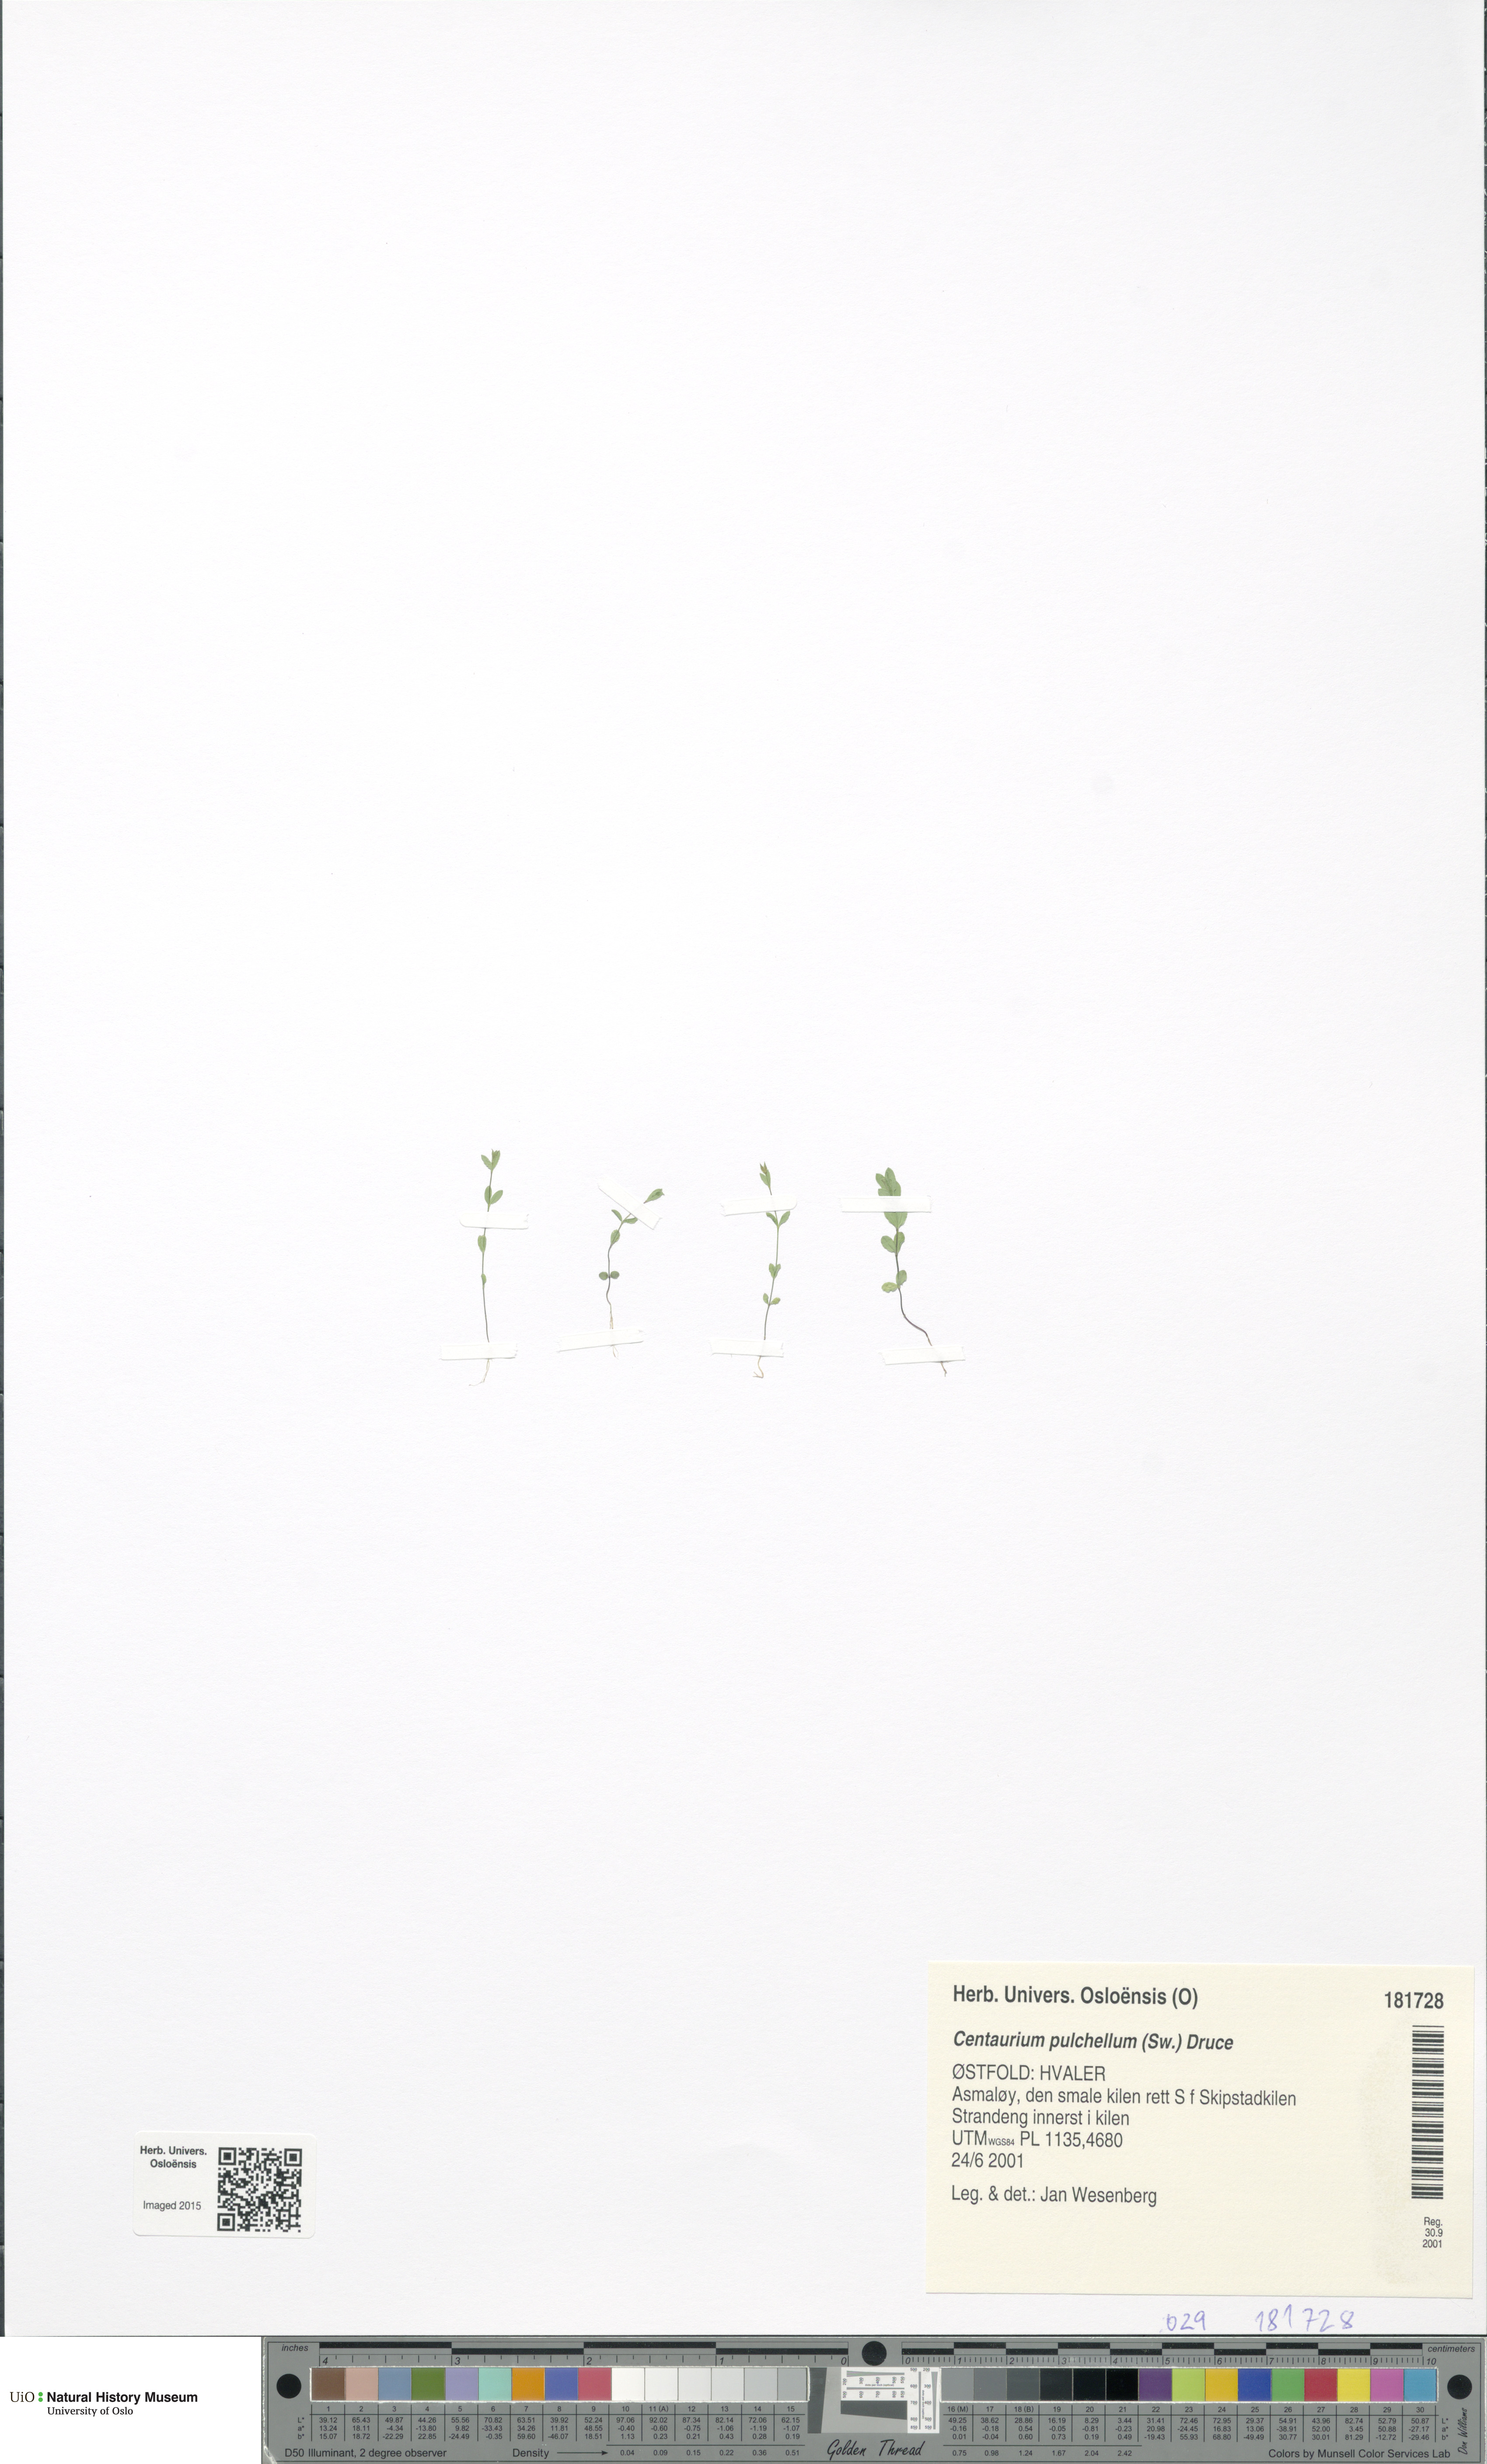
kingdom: Plantae
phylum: Tracheophyta
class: Magnoliopsida
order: Gentianales
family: Gentianaceae
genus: Centaurium
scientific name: Centaurium pulchellum
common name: Lesser centaury
